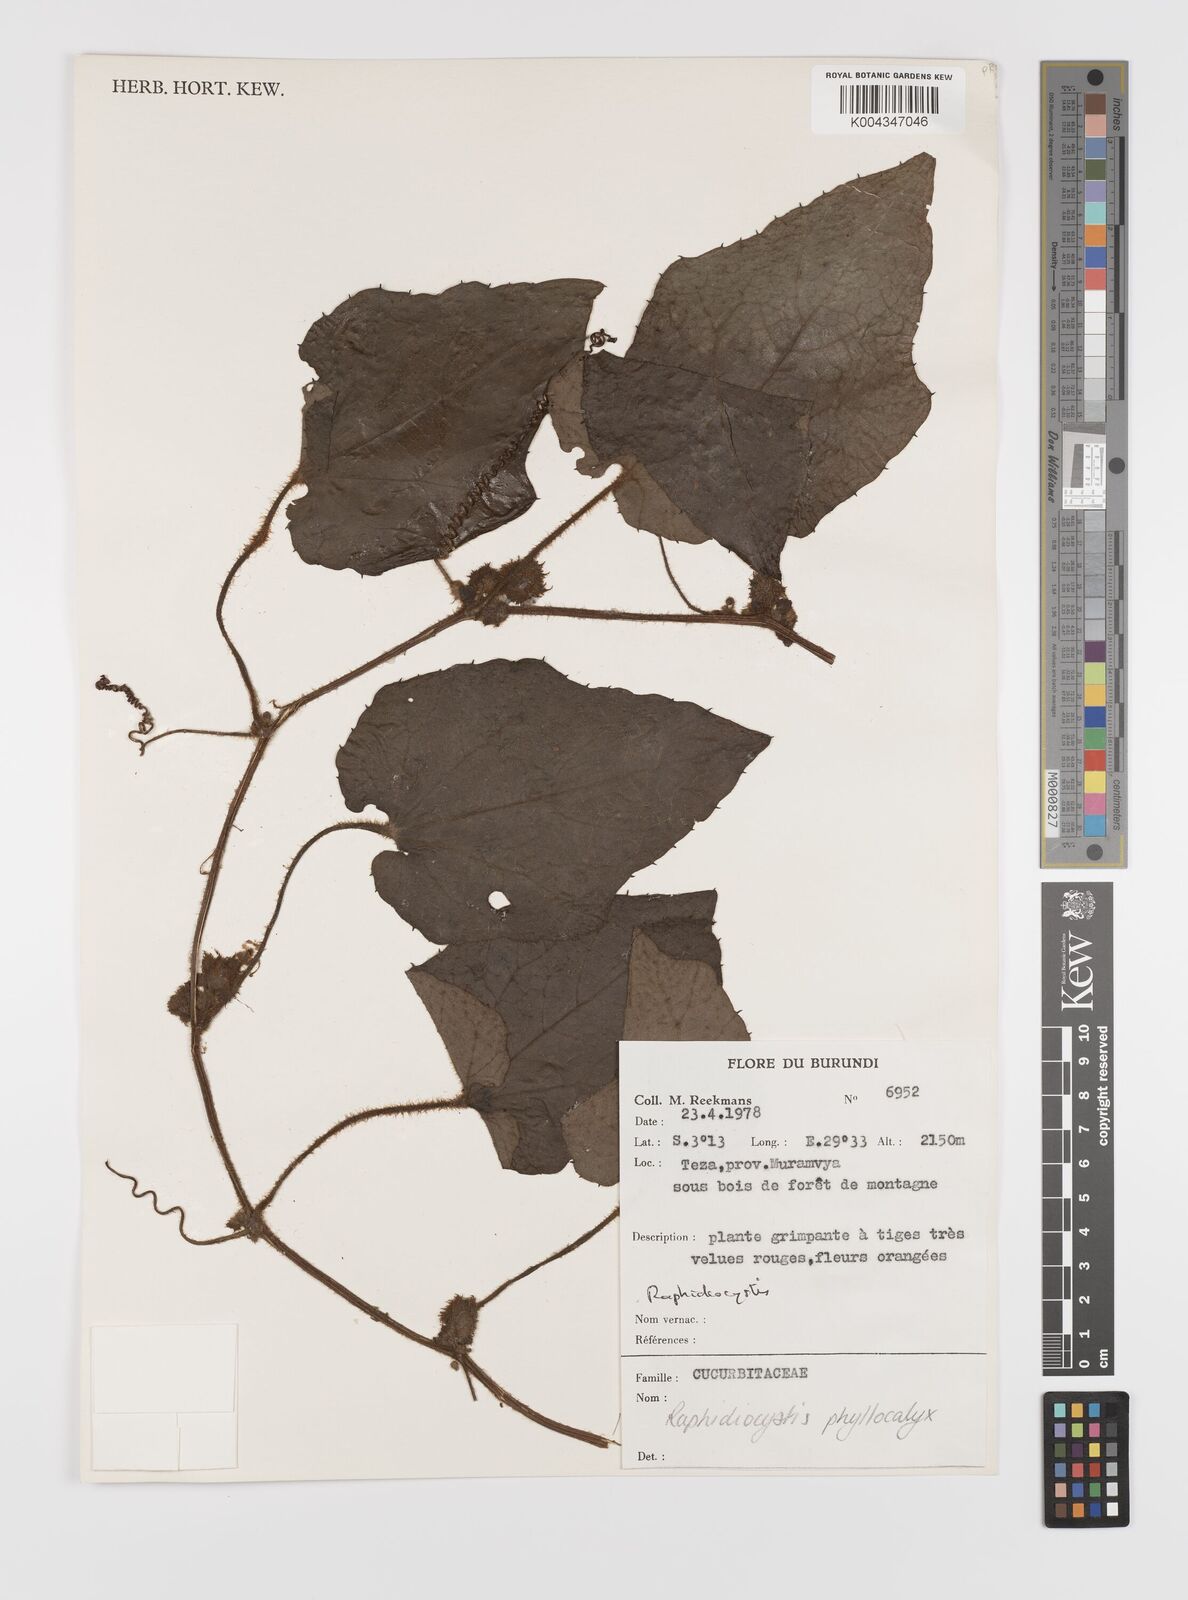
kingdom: Plantae
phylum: Tracheophyta
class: Magnoliopsida
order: Cucurbitales
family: Cucurbitaceae
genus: Raphidiocystis
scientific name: Raphidiocystis phyllocalyx
